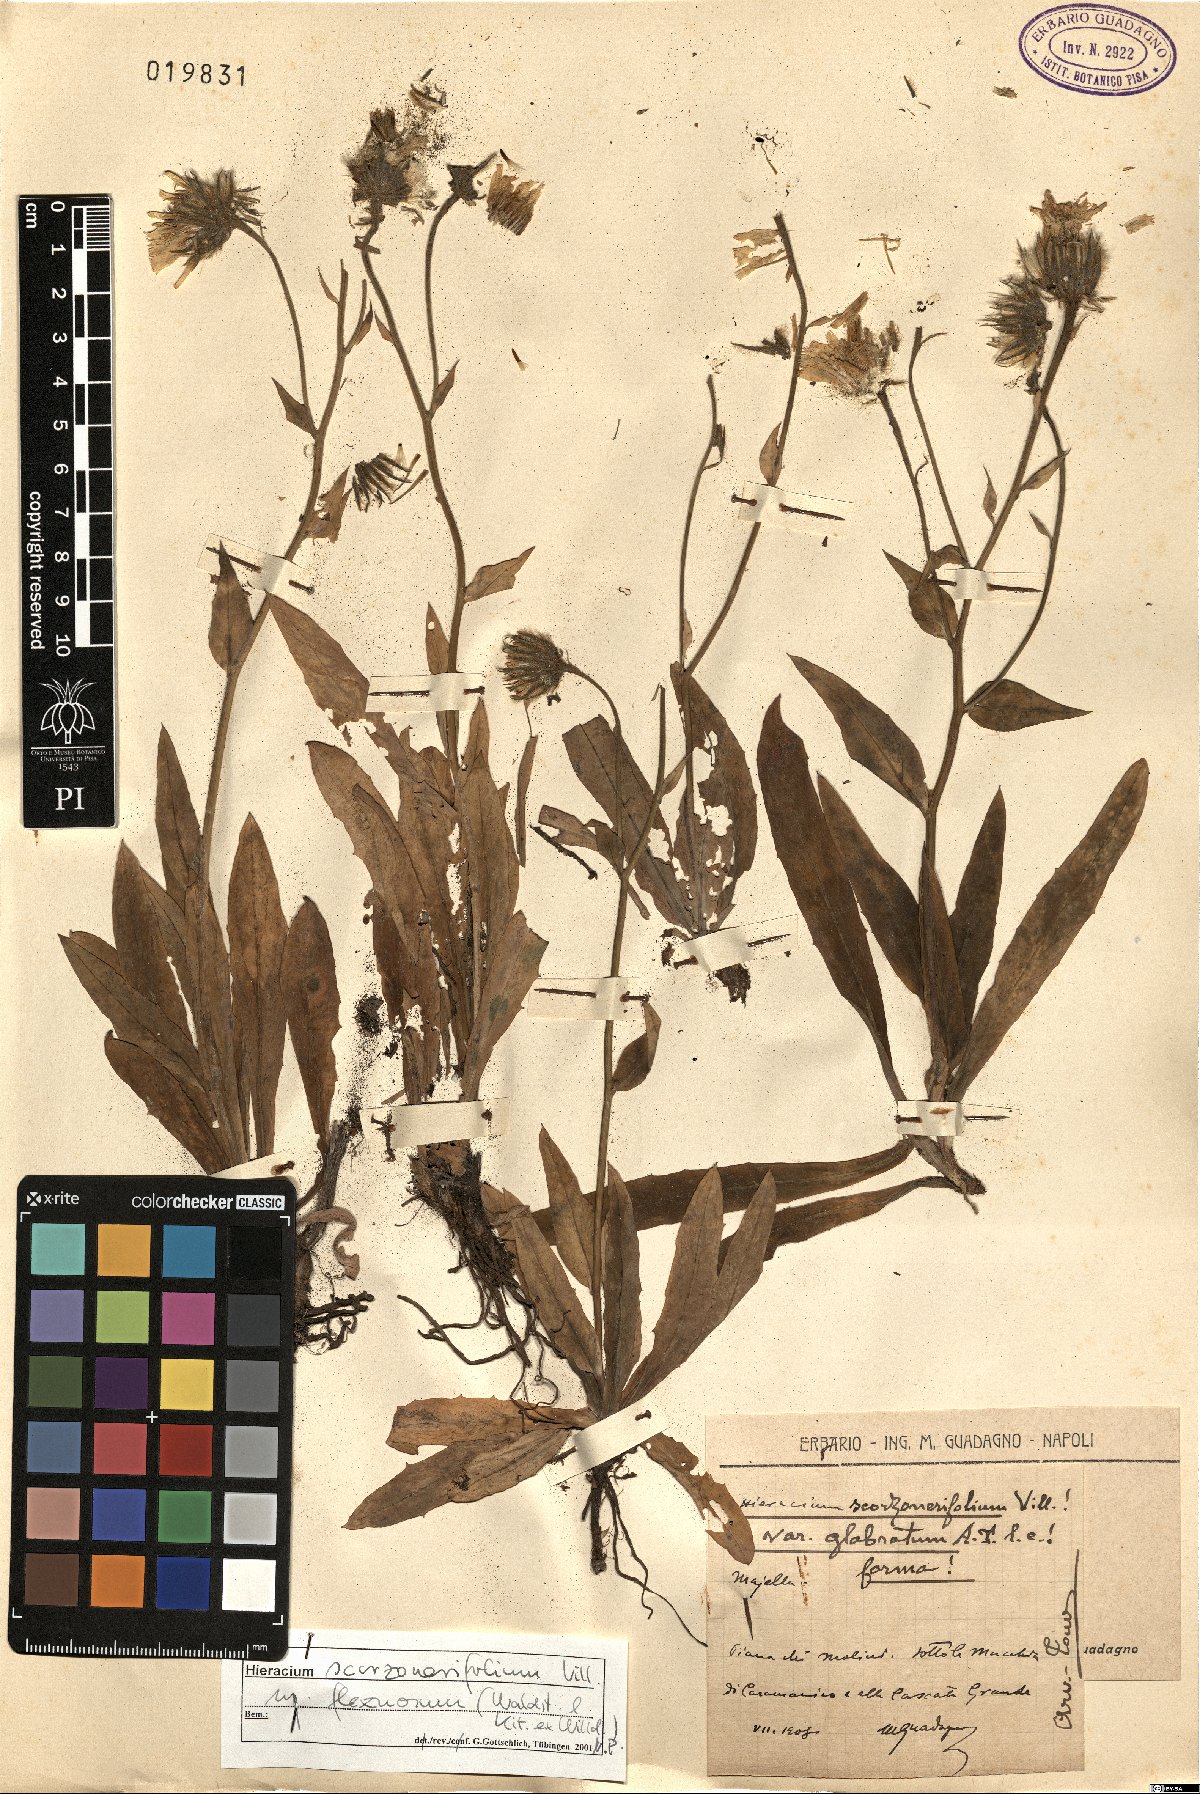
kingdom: Plantae
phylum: Tracheophyta
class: Magnoliopsida
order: Asterales
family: Asteraceae
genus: Hieracium
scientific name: Hieracium scorzonerifolium
